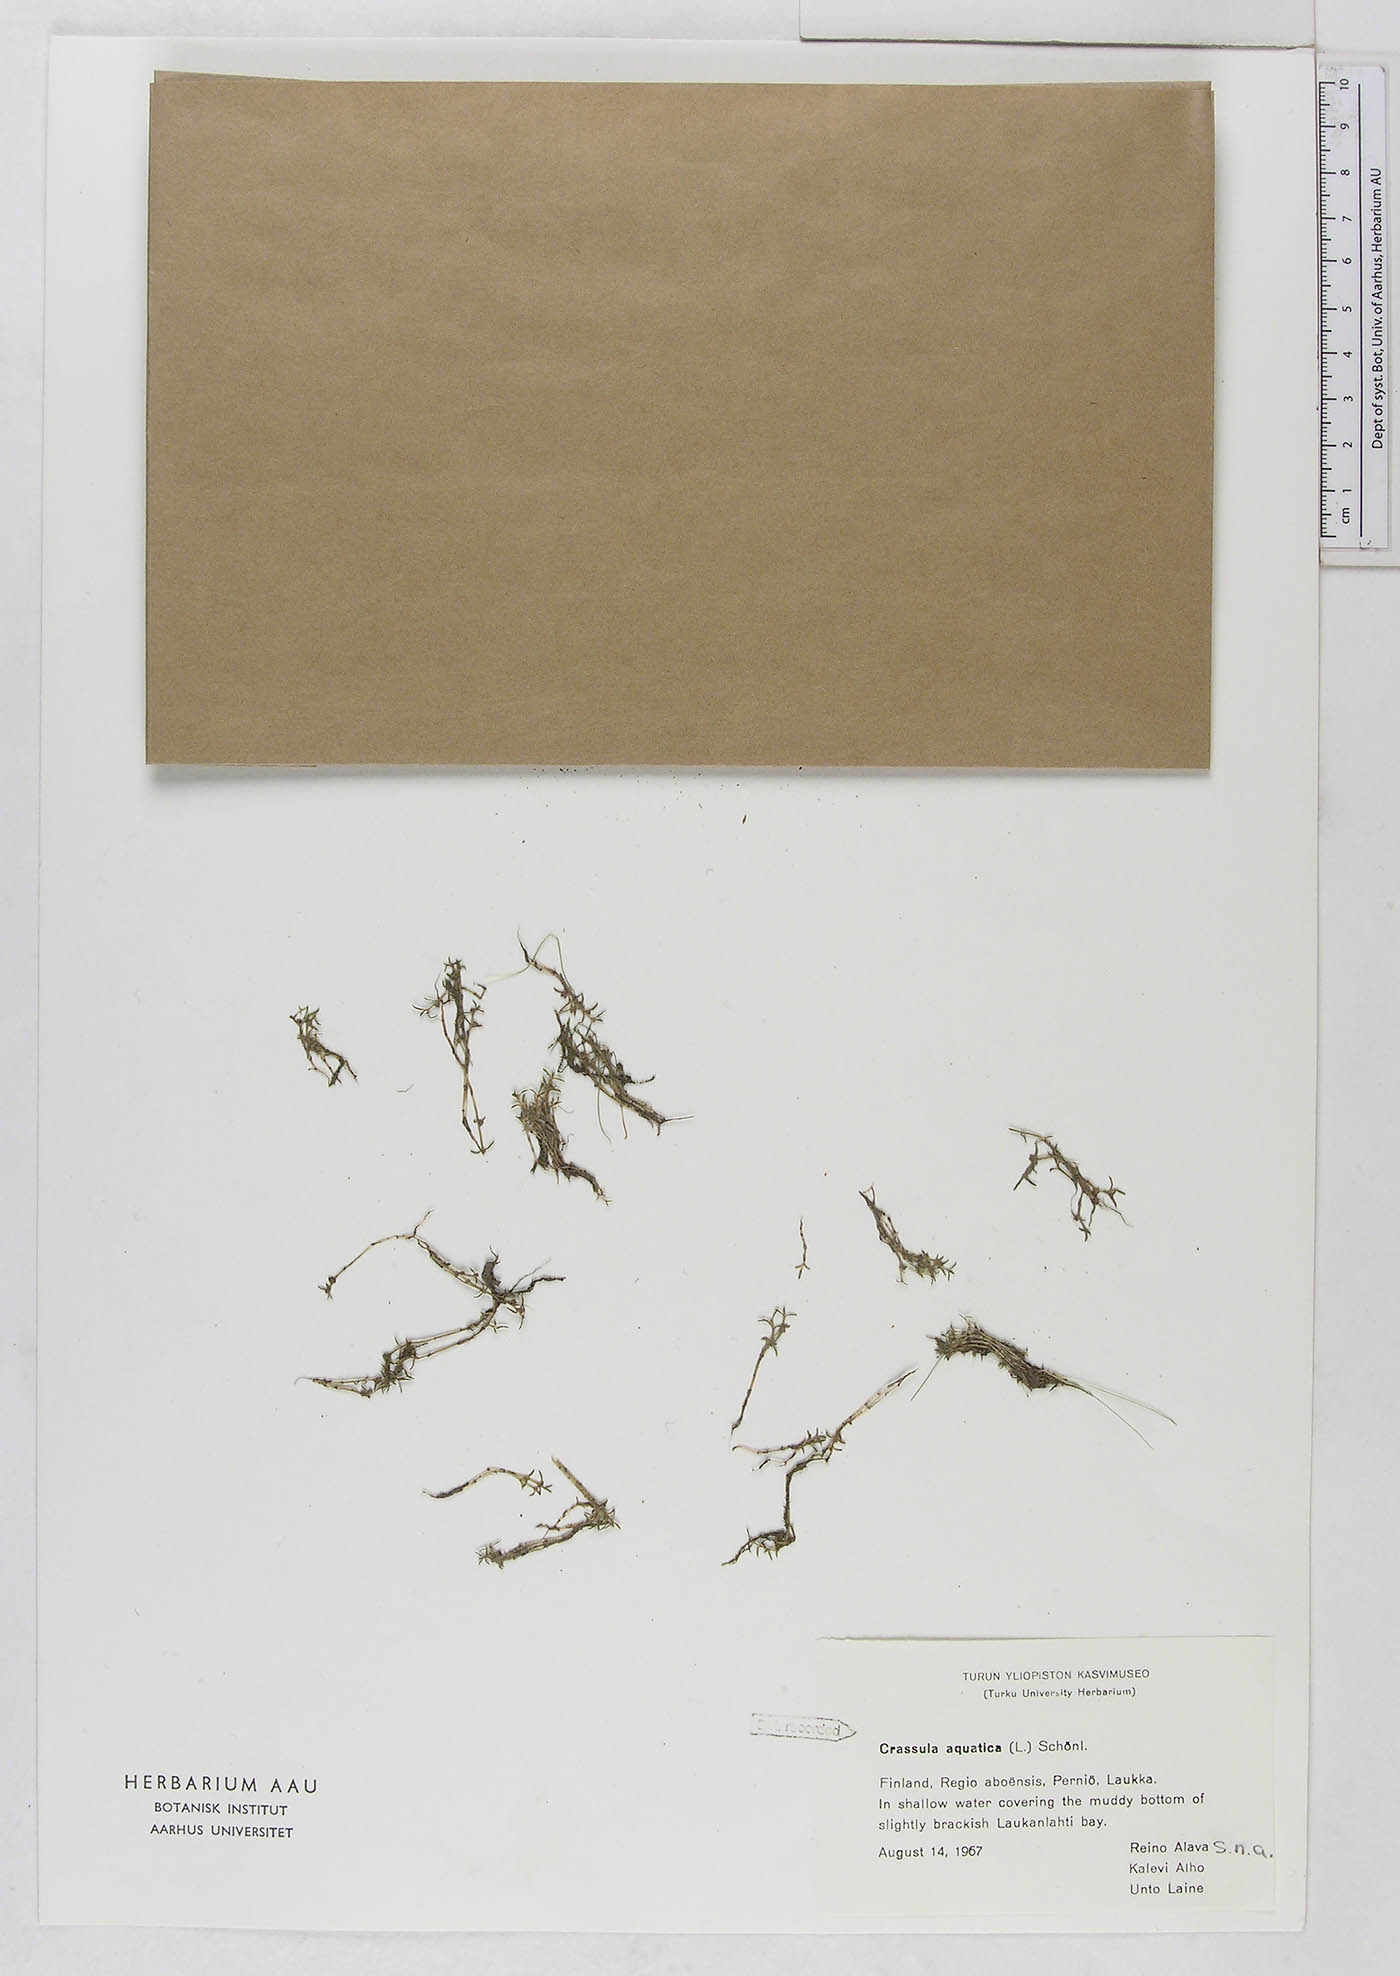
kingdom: Plantae
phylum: Tracheophyta
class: Magnoliopsida
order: Saxifragales
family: Crassulaceae
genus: Crassula
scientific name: Crassula aquatica
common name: Pigmyweed
